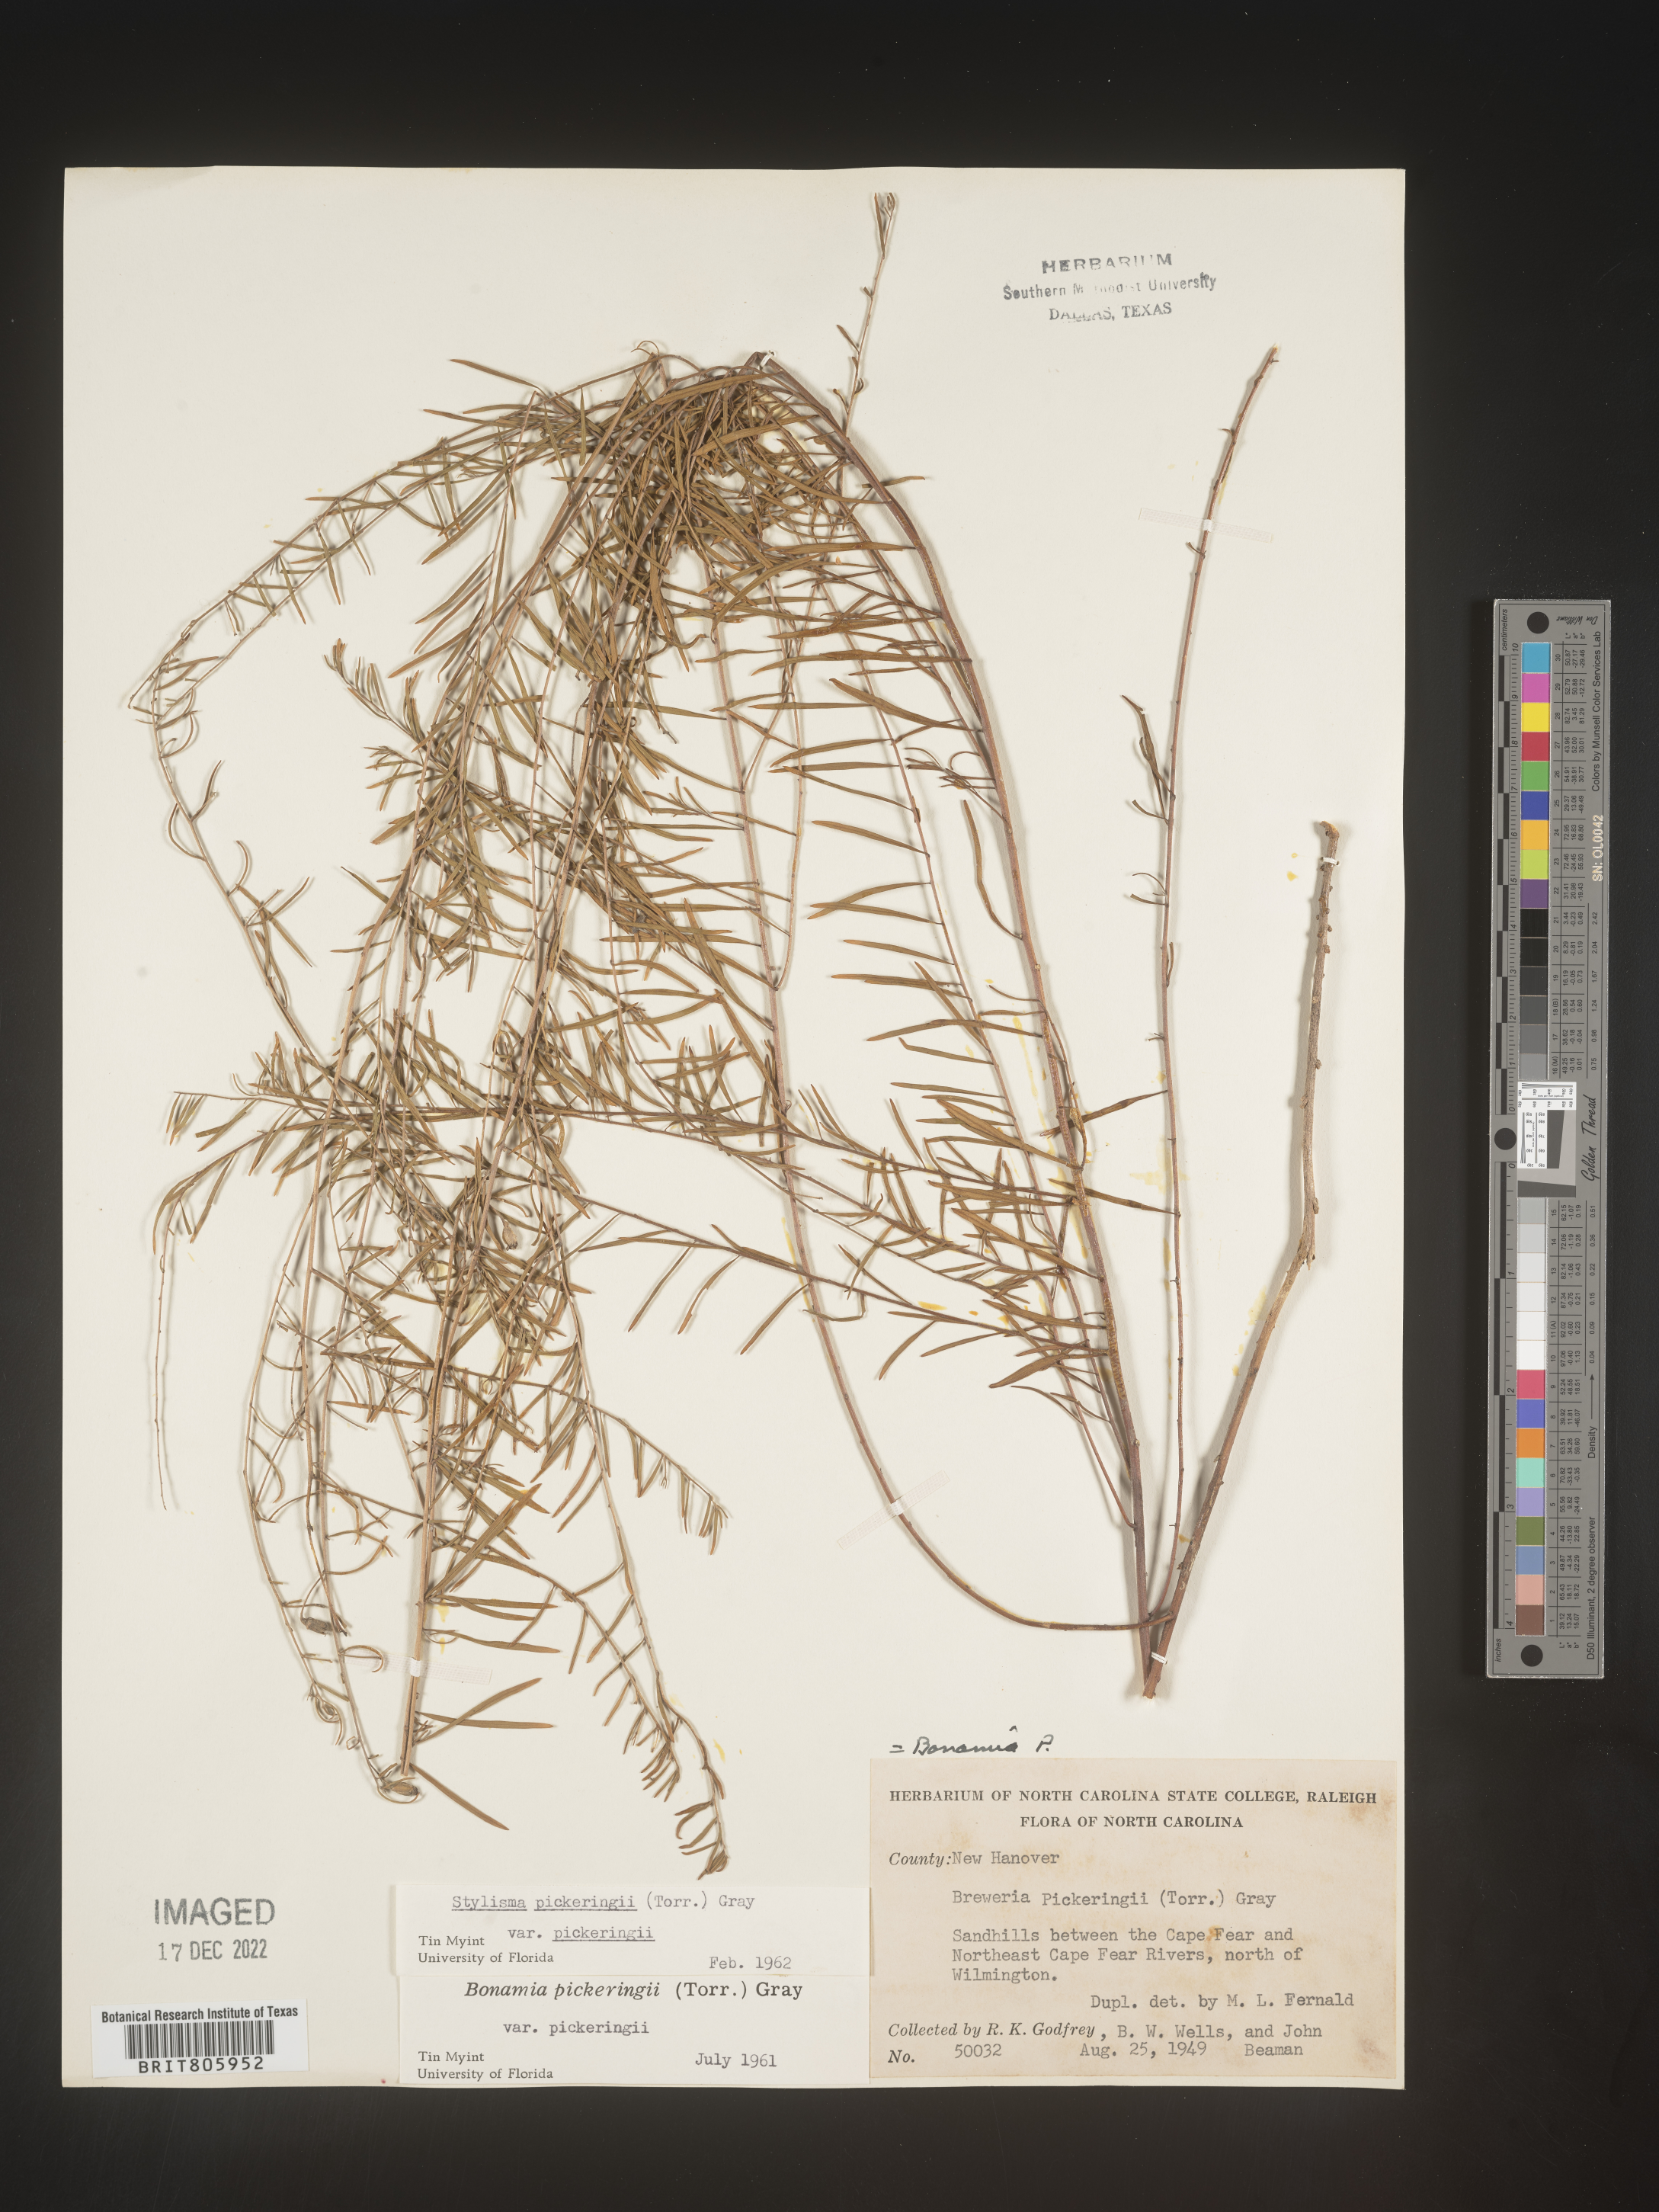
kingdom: Plantae
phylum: Tracheophyta
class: Magnoliopsida
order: Solanales
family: Convolvulaceae
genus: Stylisma
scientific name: Stylisma
